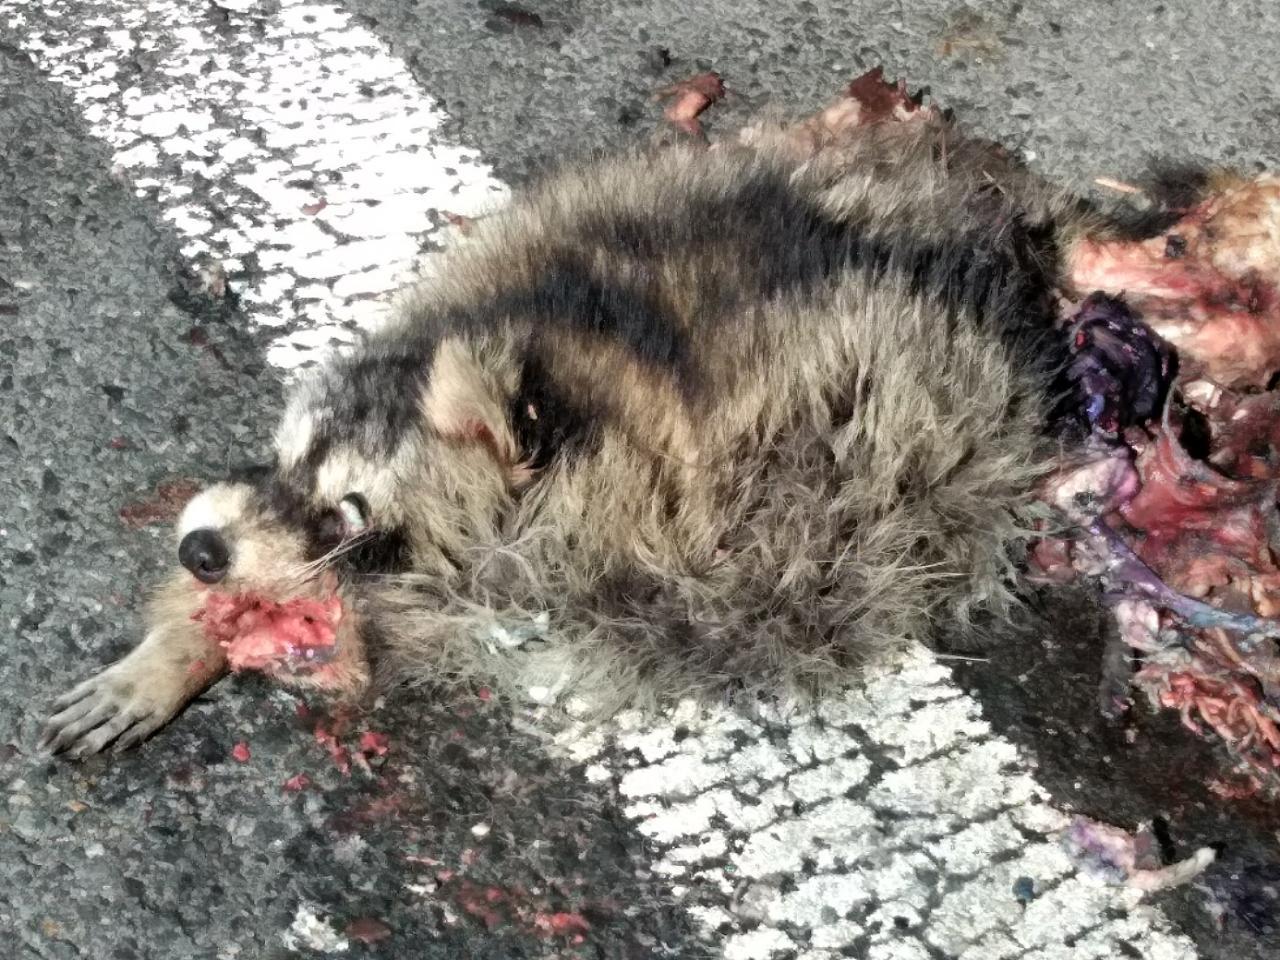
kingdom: Animalia
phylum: Chordata
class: Mammalia
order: Carnivora
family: Procyonidae
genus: Procyon
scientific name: Procyon lotor
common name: Raccoon
